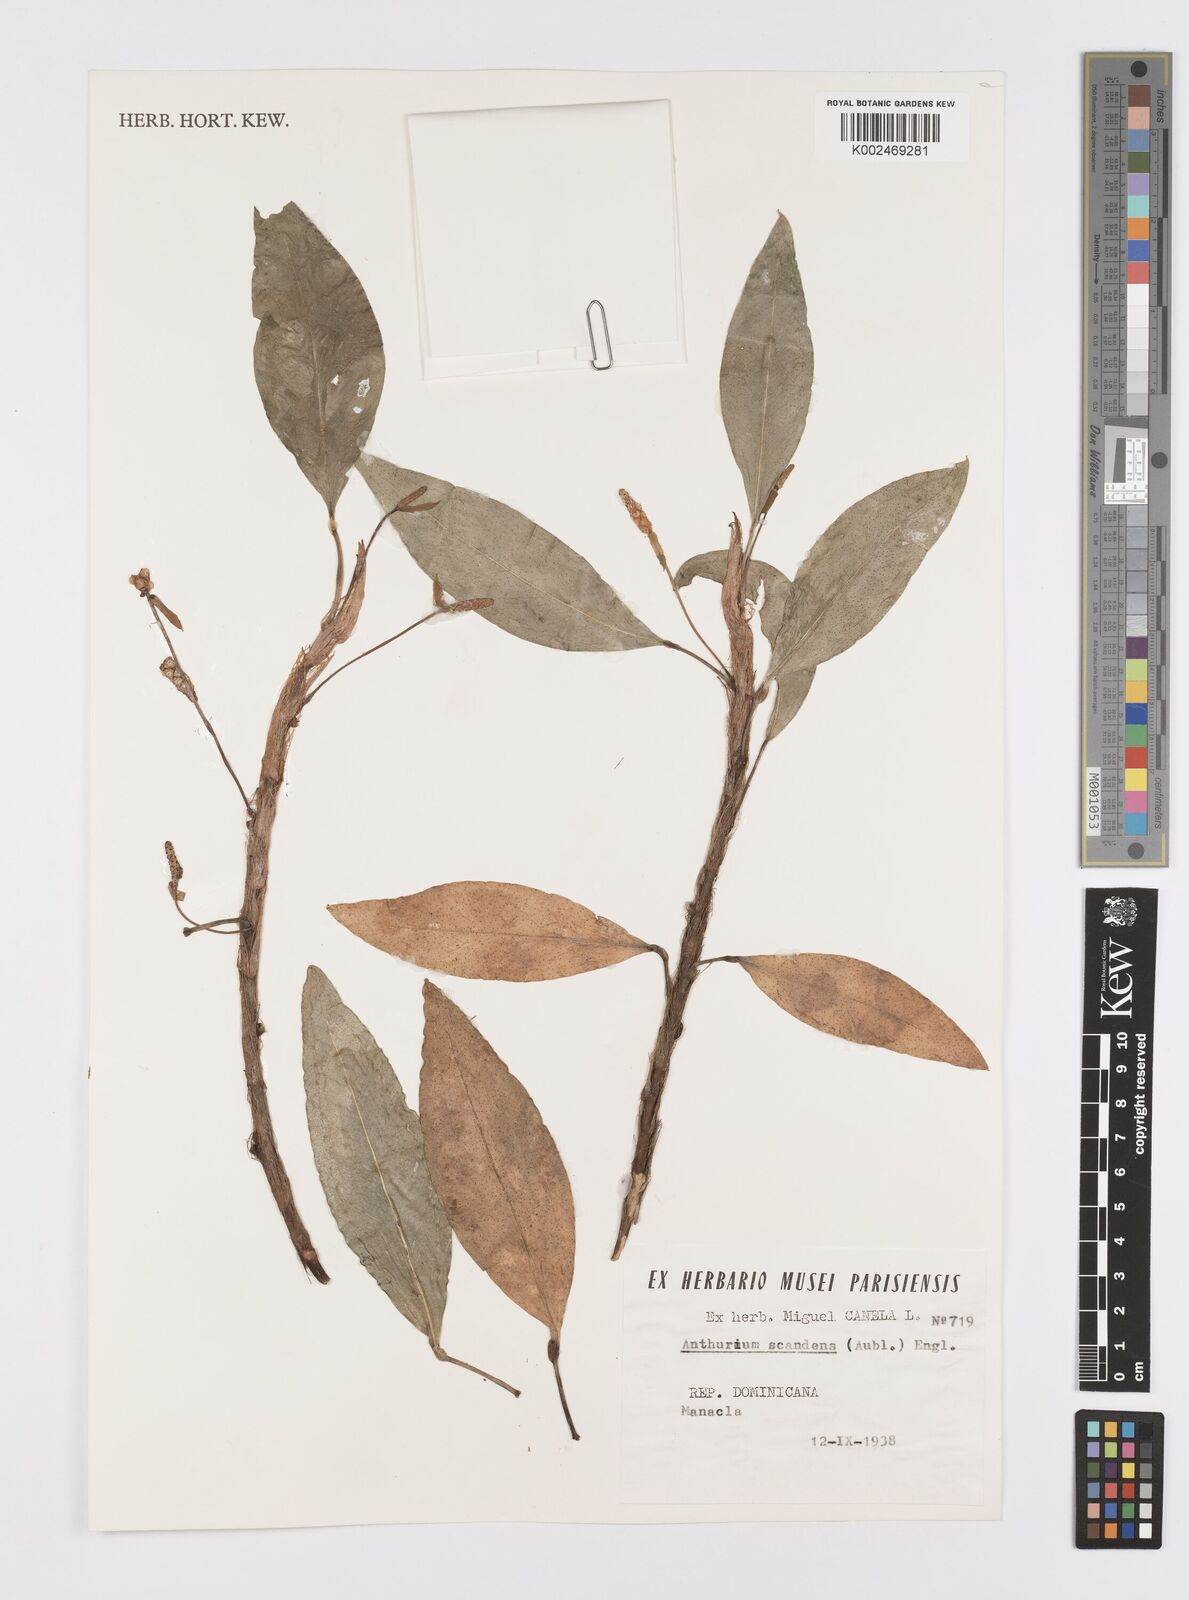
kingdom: Plantae
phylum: Tracheophyta
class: Liliopsida
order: Alismatales
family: Araceae
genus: Anthurium
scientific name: Anthurium scandens
